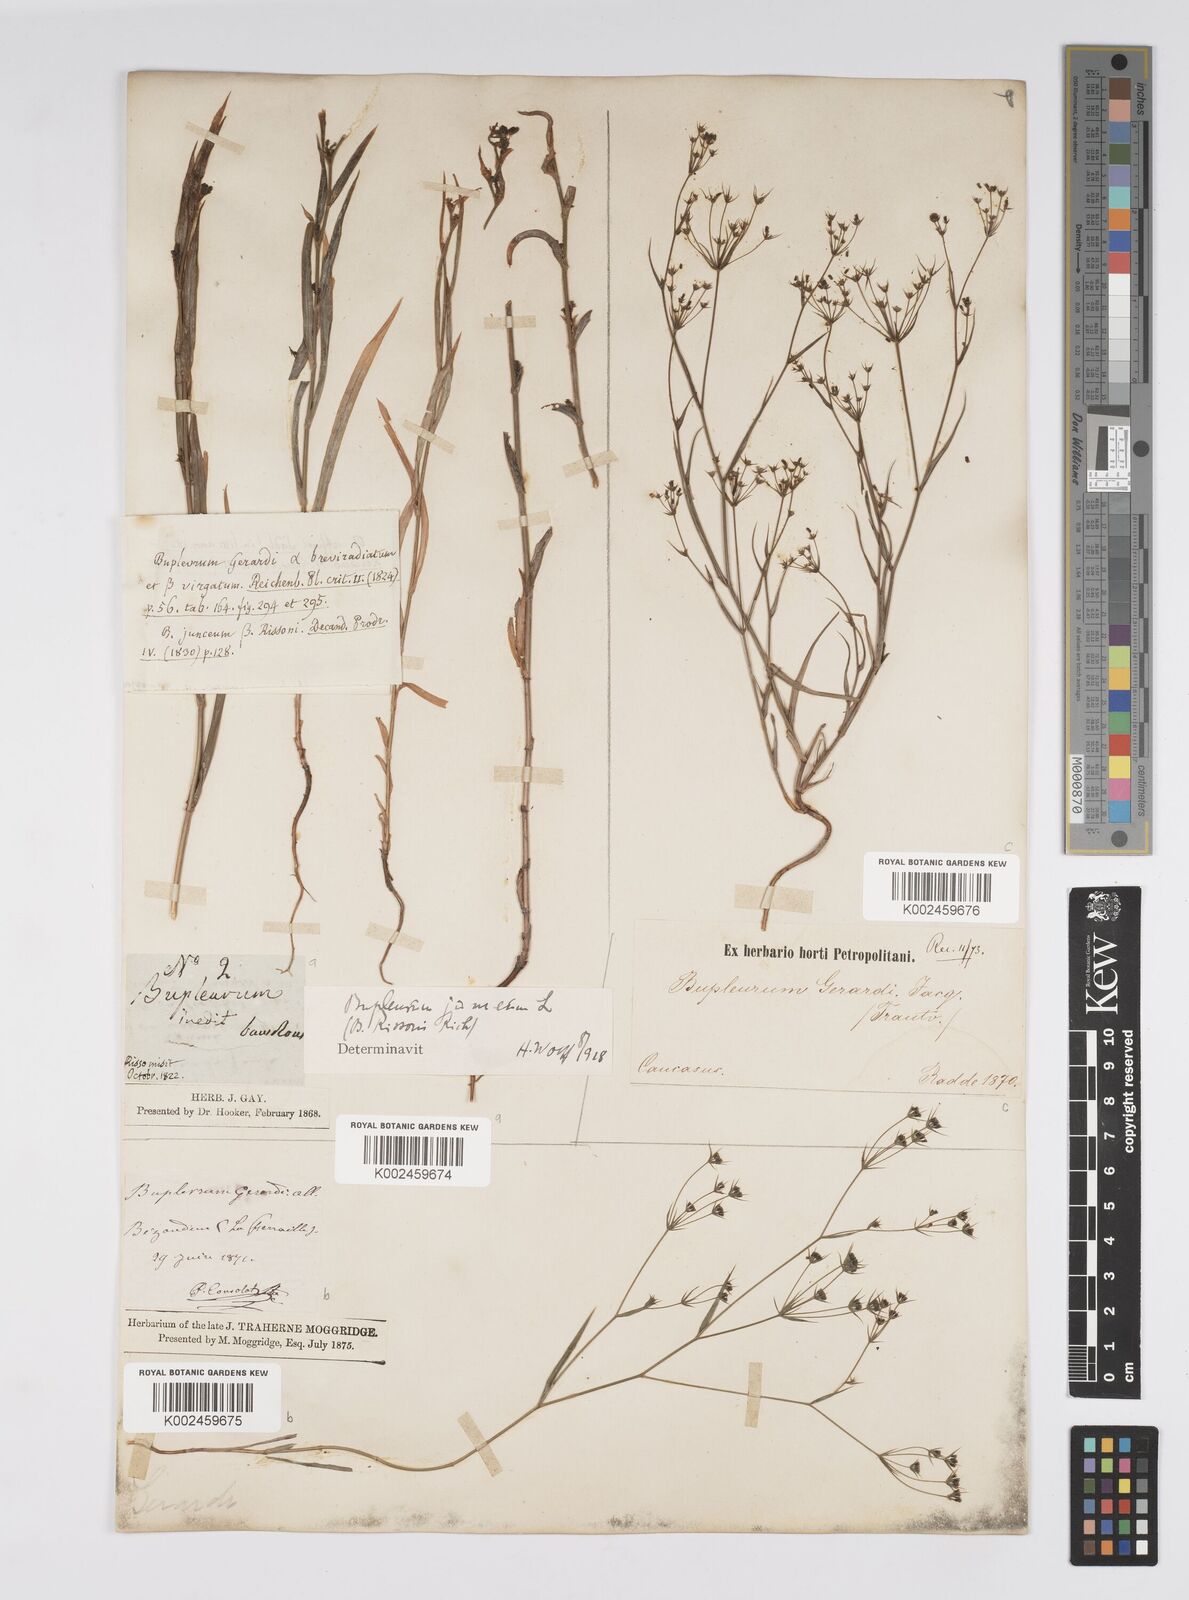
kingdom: Plantae
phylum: Tracheophyta
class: Magnoliopsida
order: Apiales
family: Apiaceae
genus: Bupleurum
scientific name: Bupleurum gerardi
